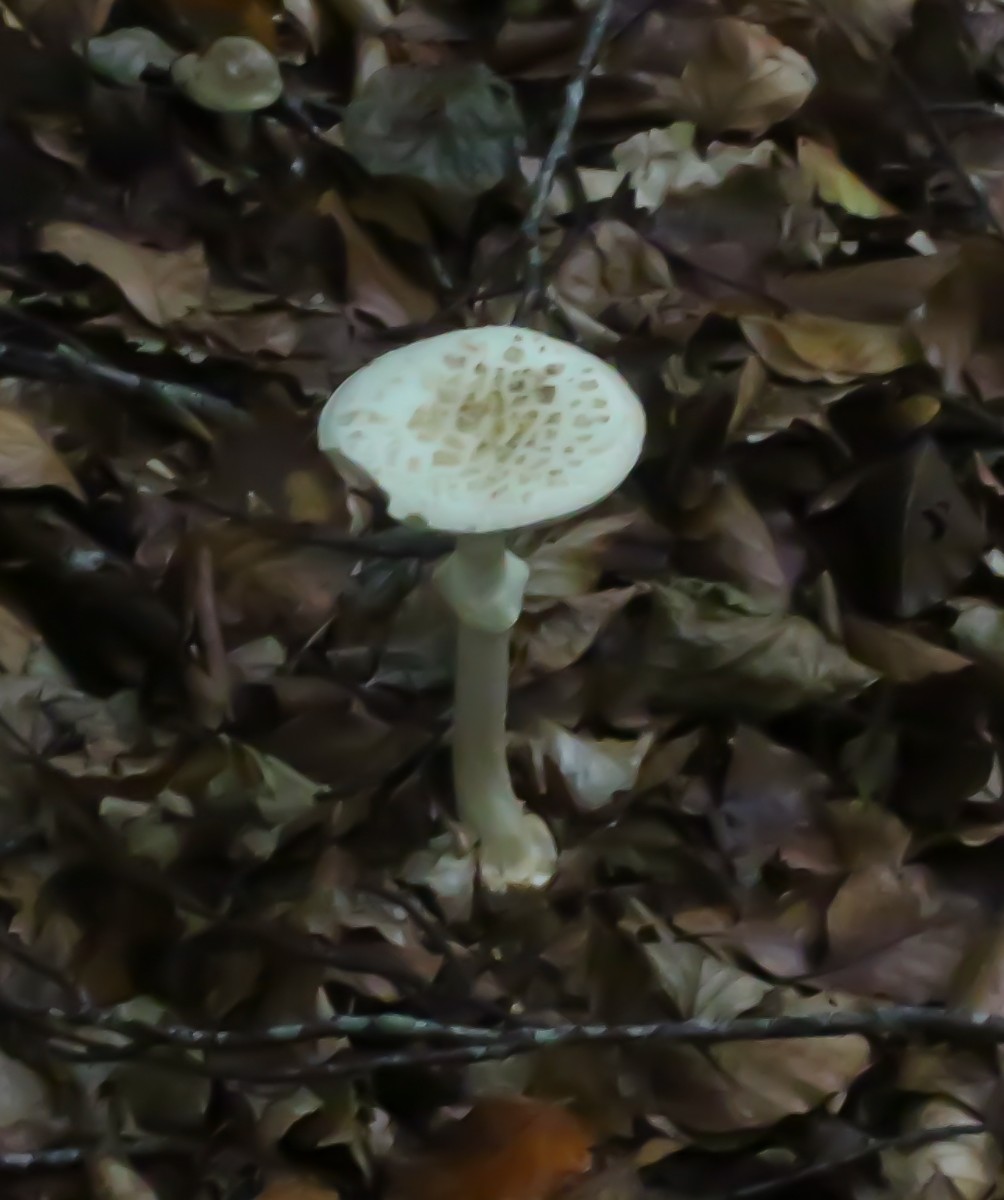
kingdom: Fungi
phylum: Basidiomycota
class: Agaricomycetes
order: Agaricales
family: Amanitaceae
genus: Amanita
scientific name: Amanita citrina
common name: kugleknoldet fluesvamp
